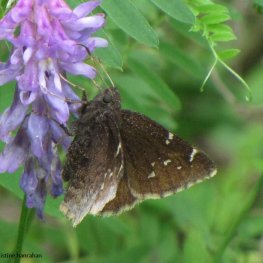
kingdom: Animalia
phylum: Arthropoda
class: Insecta
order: Lepidoptera
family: Hesperiidae
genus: Autochton
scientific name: Autochton
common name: Northern Cloudywing
